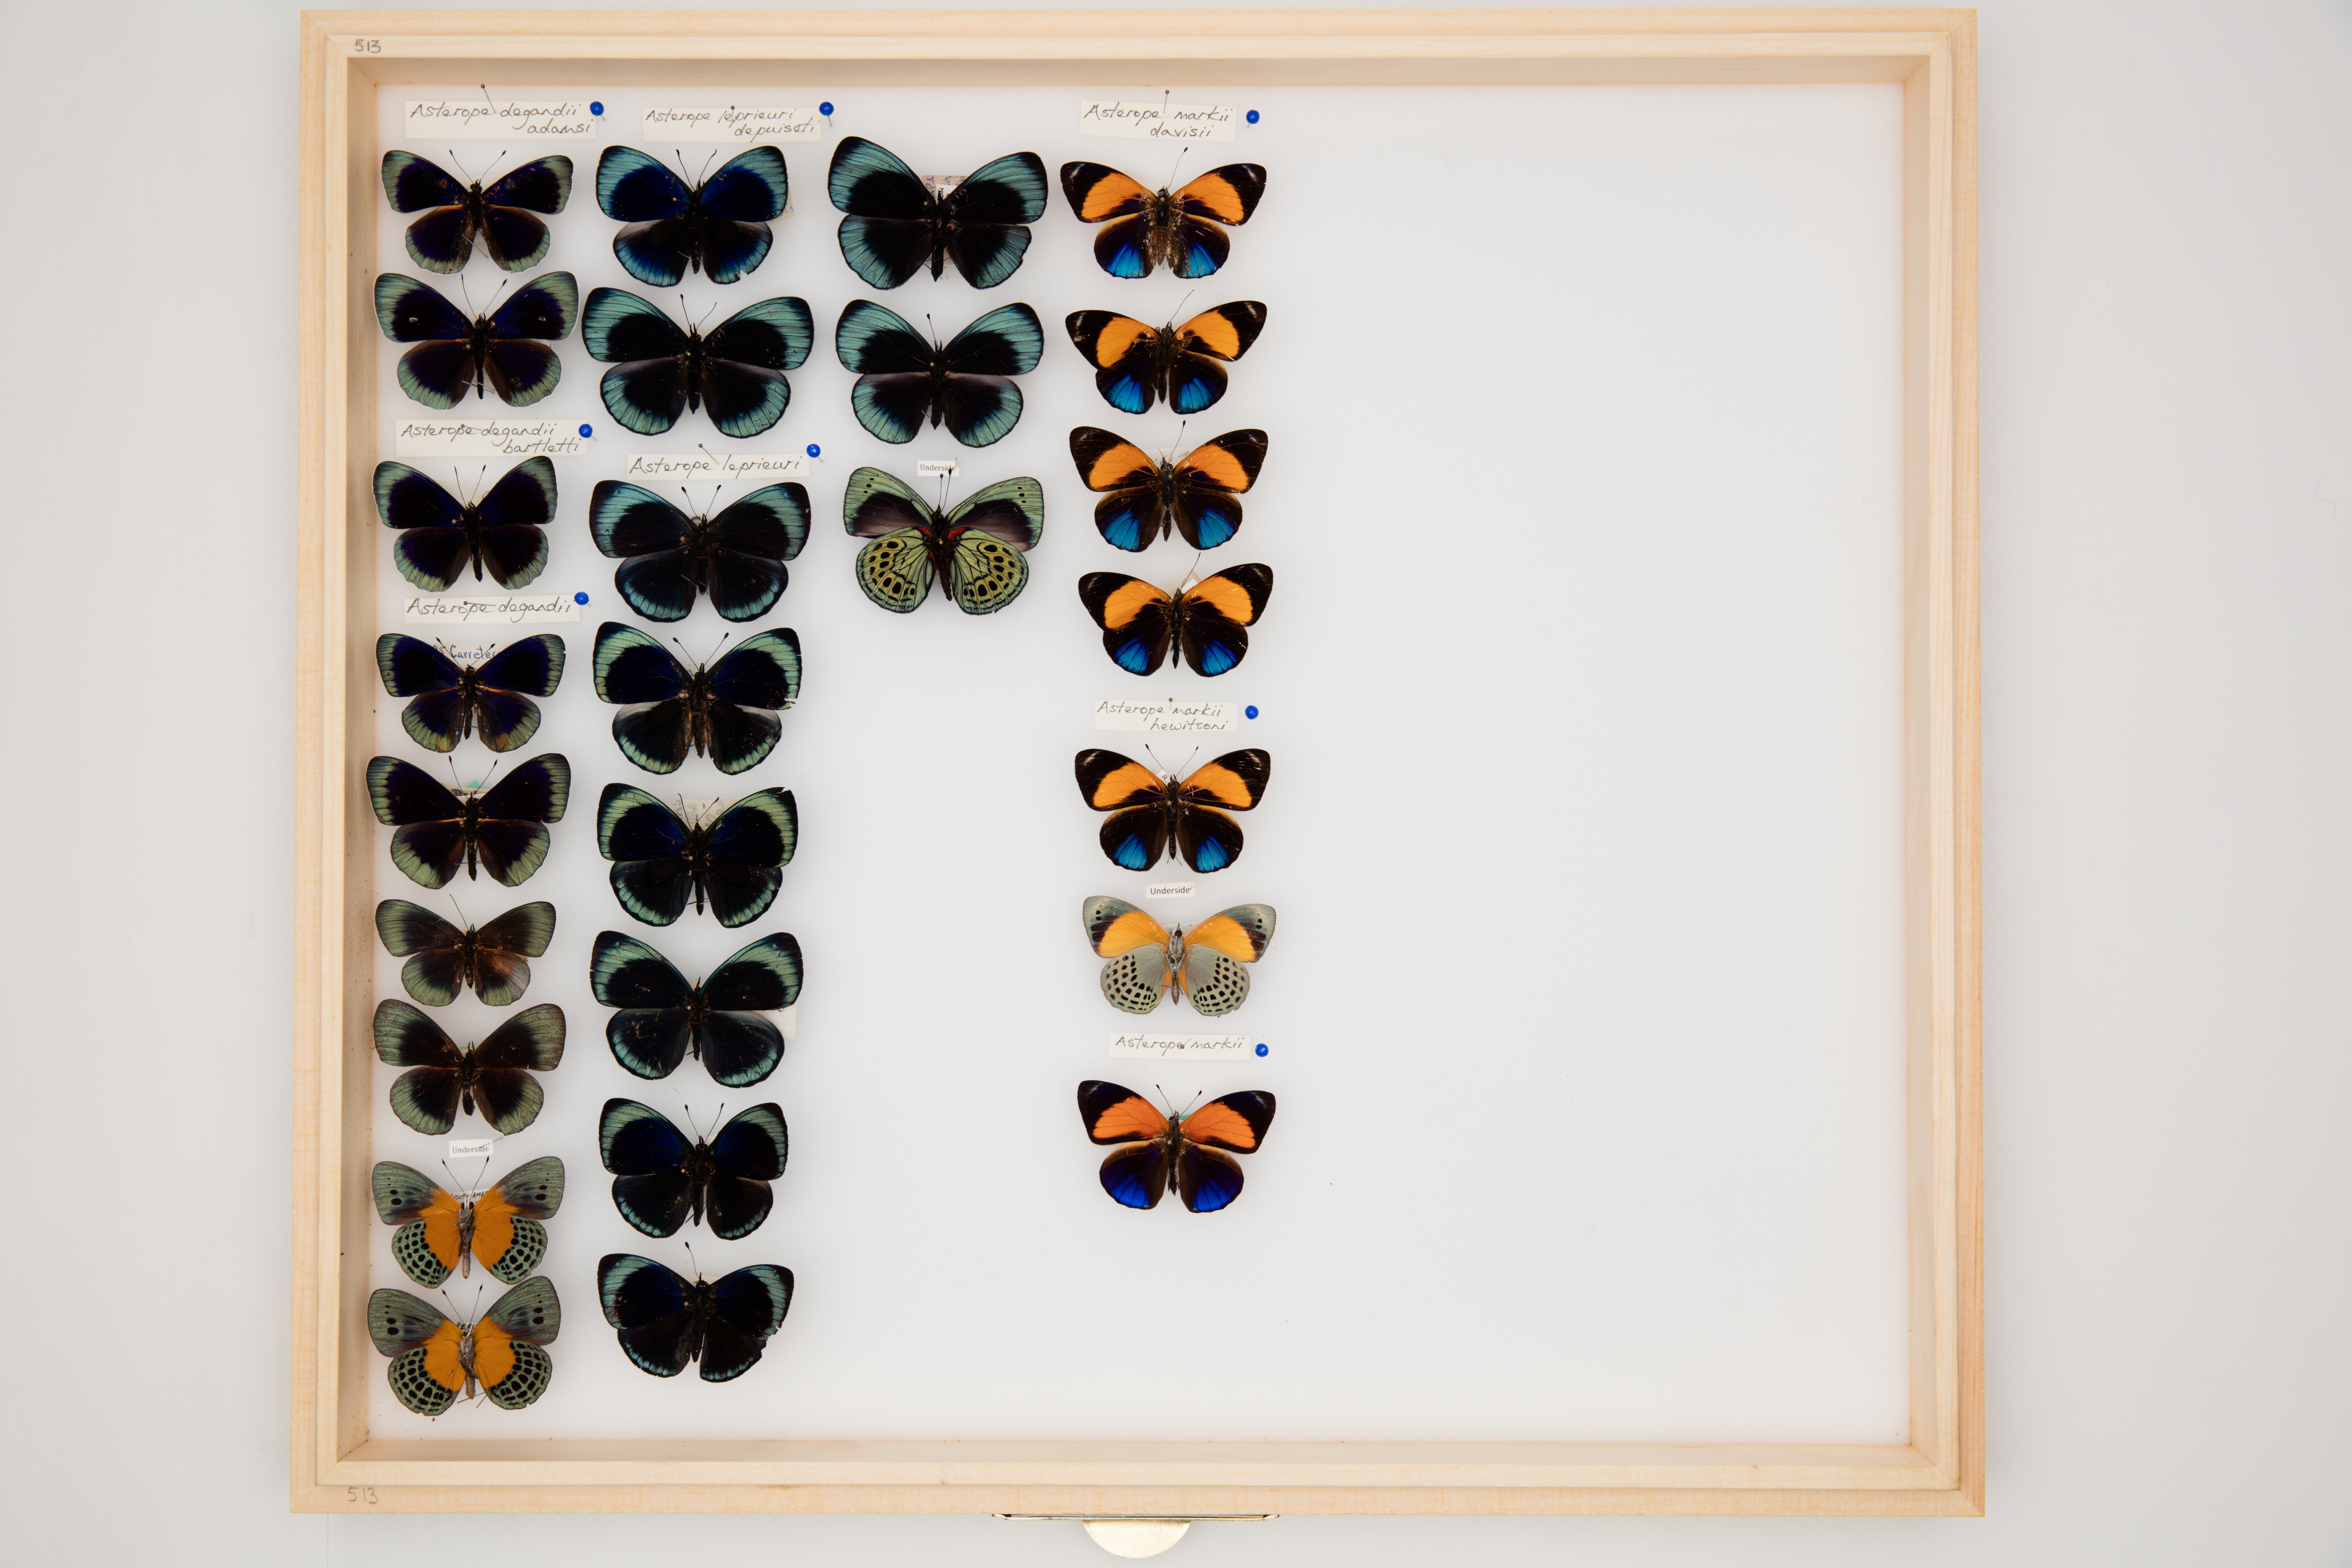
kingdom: Animalia
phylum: Arthropoda
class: Insecta
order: Lepidoptera
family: Nymphalidae
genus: Asterope
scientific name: Asterope leprieuri
